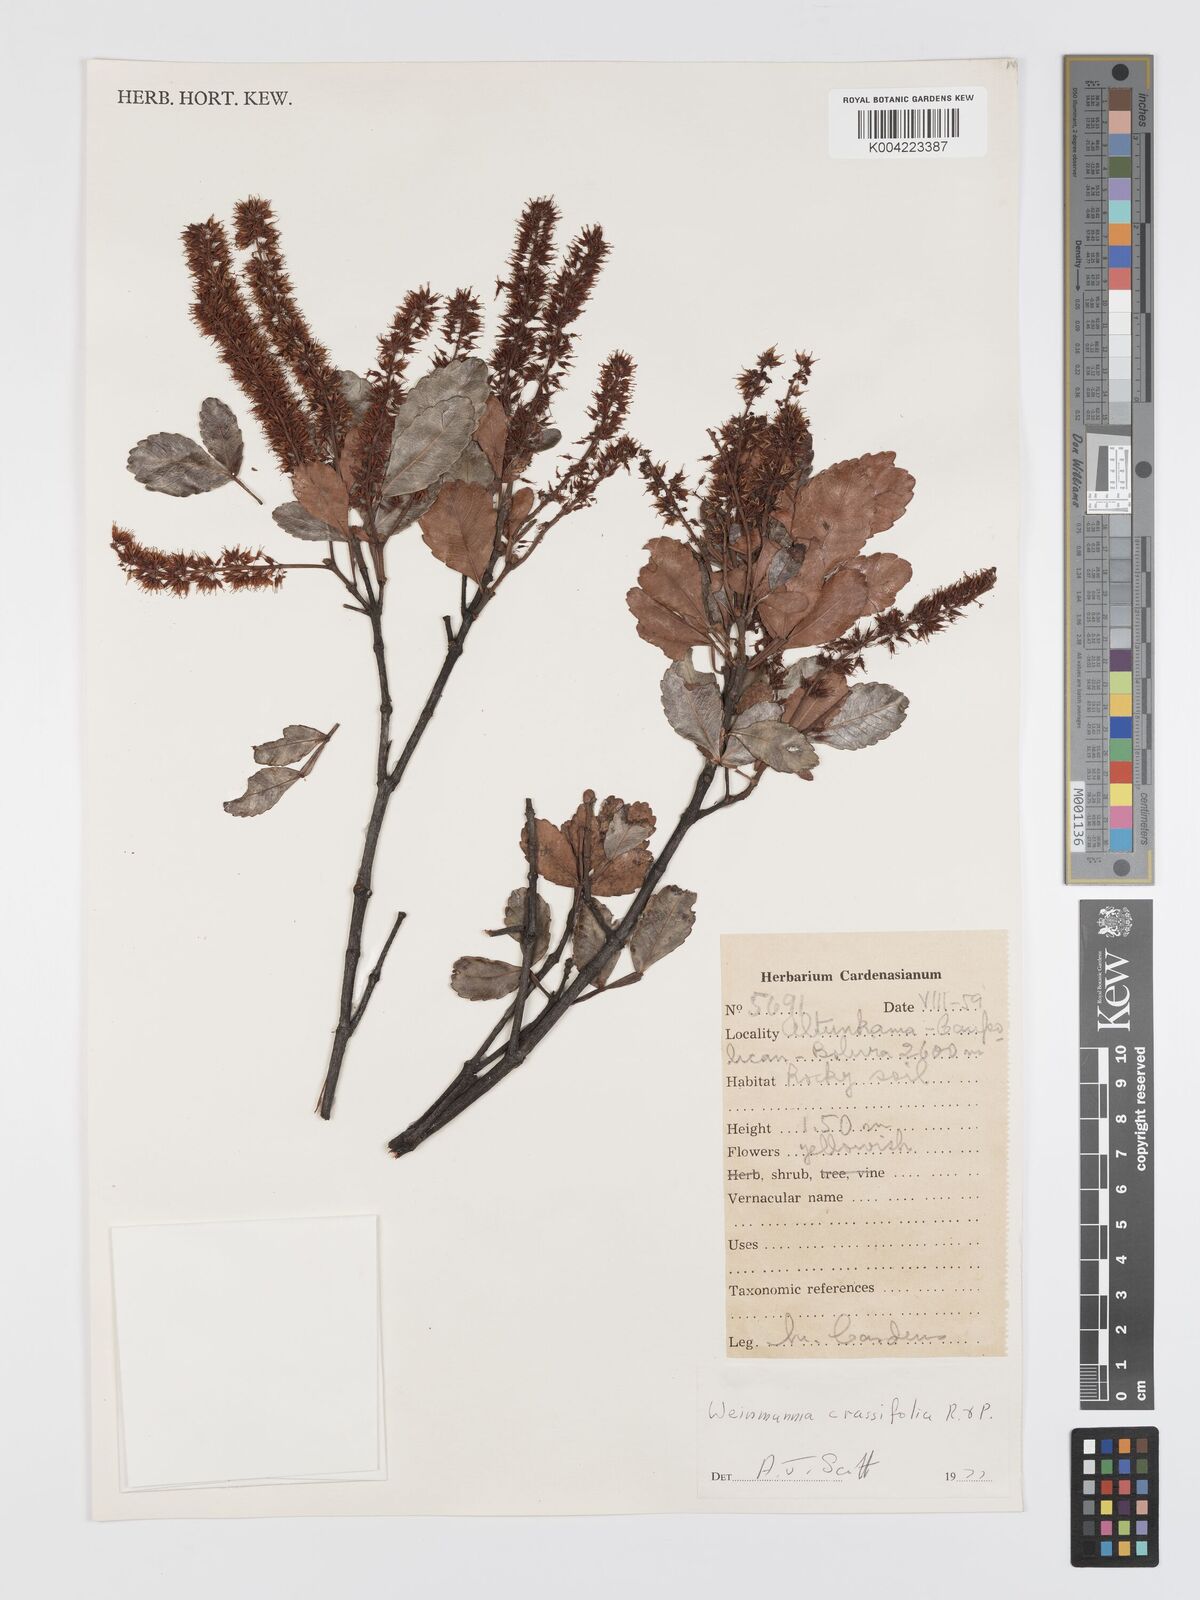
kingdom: Plantae
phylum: Tracheophyta
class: Magnoliopsida
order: Oxalidales
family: Cunoniaceae
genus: Weinmannia
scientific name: Weinmannia crassifolia
